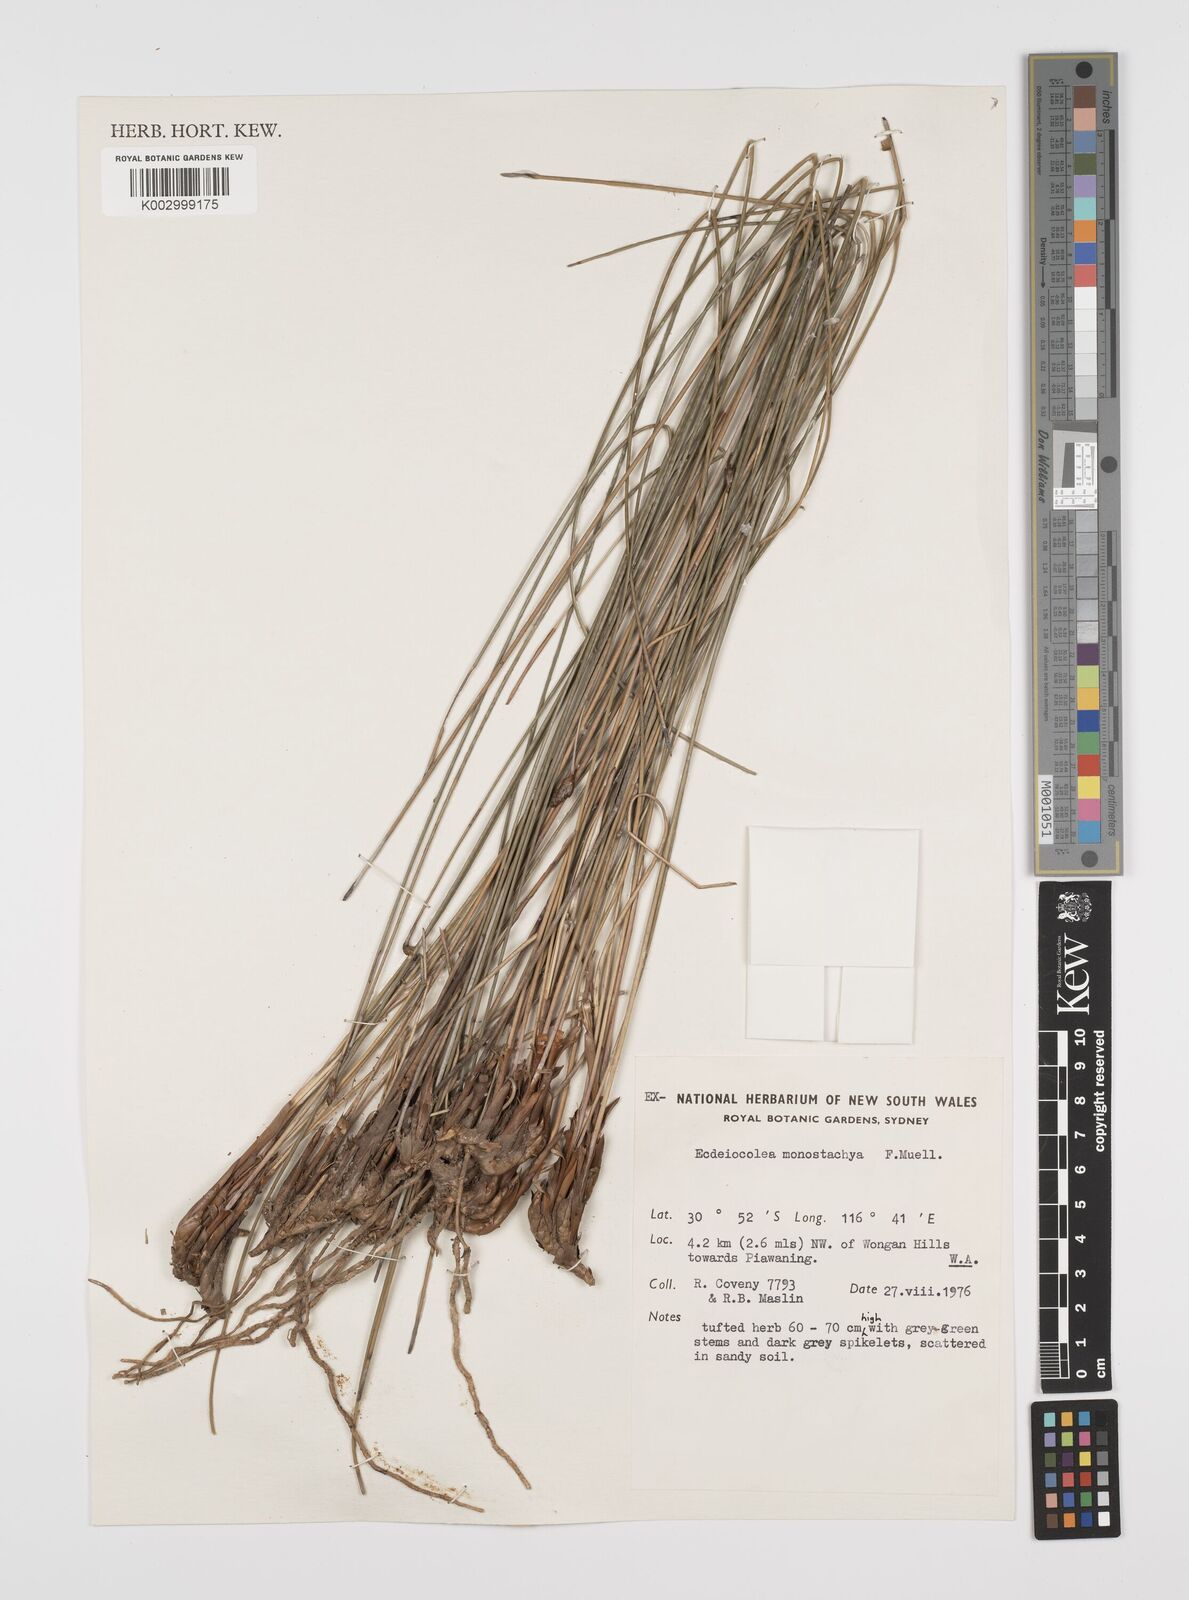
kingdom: Plantae
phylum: Tracheophyta
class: Liliopsida
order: Poales
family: Ecdeiocoleaceae
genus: Ecdeiocolea
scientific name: Ecdeiocolea monostachya
